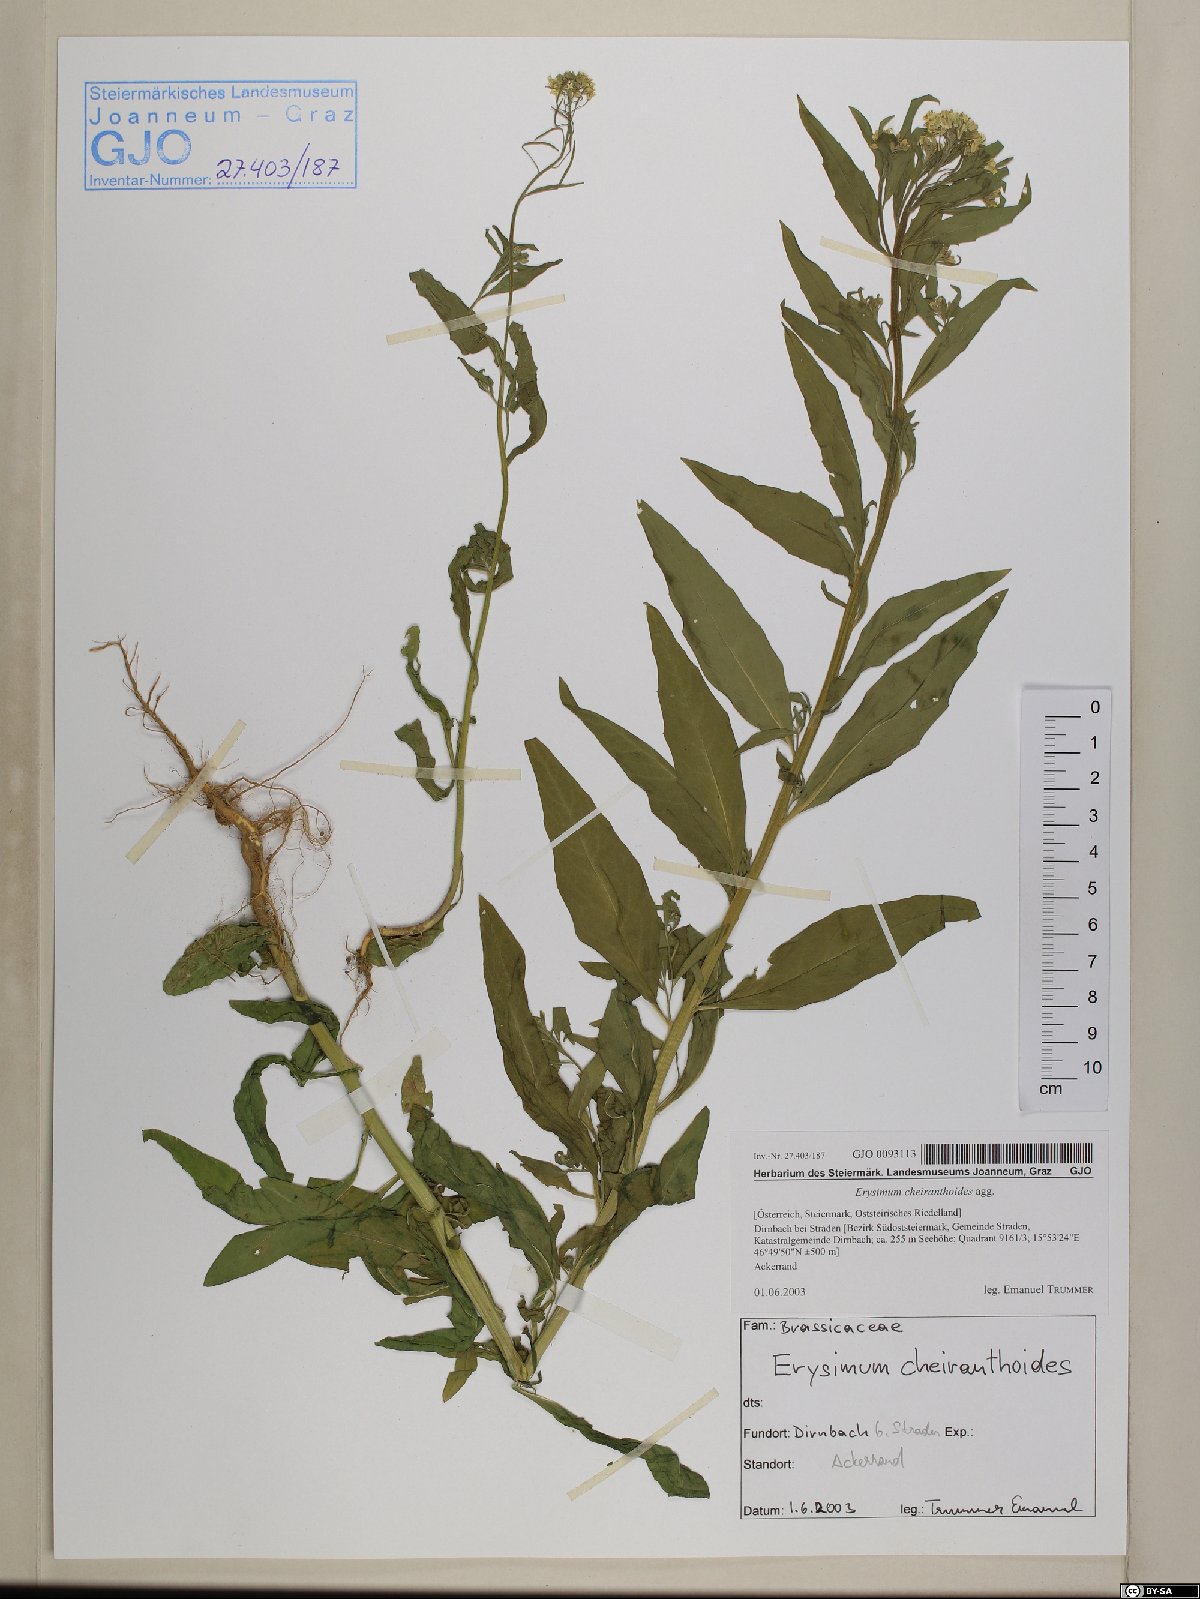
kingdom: Plantae
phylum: Tracheophyta
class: Magnoliopsida
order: Brassicales
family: Brassicaceae
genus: Erysimum
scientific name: Erysimum cheiranthoides
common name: Treacle mustard
